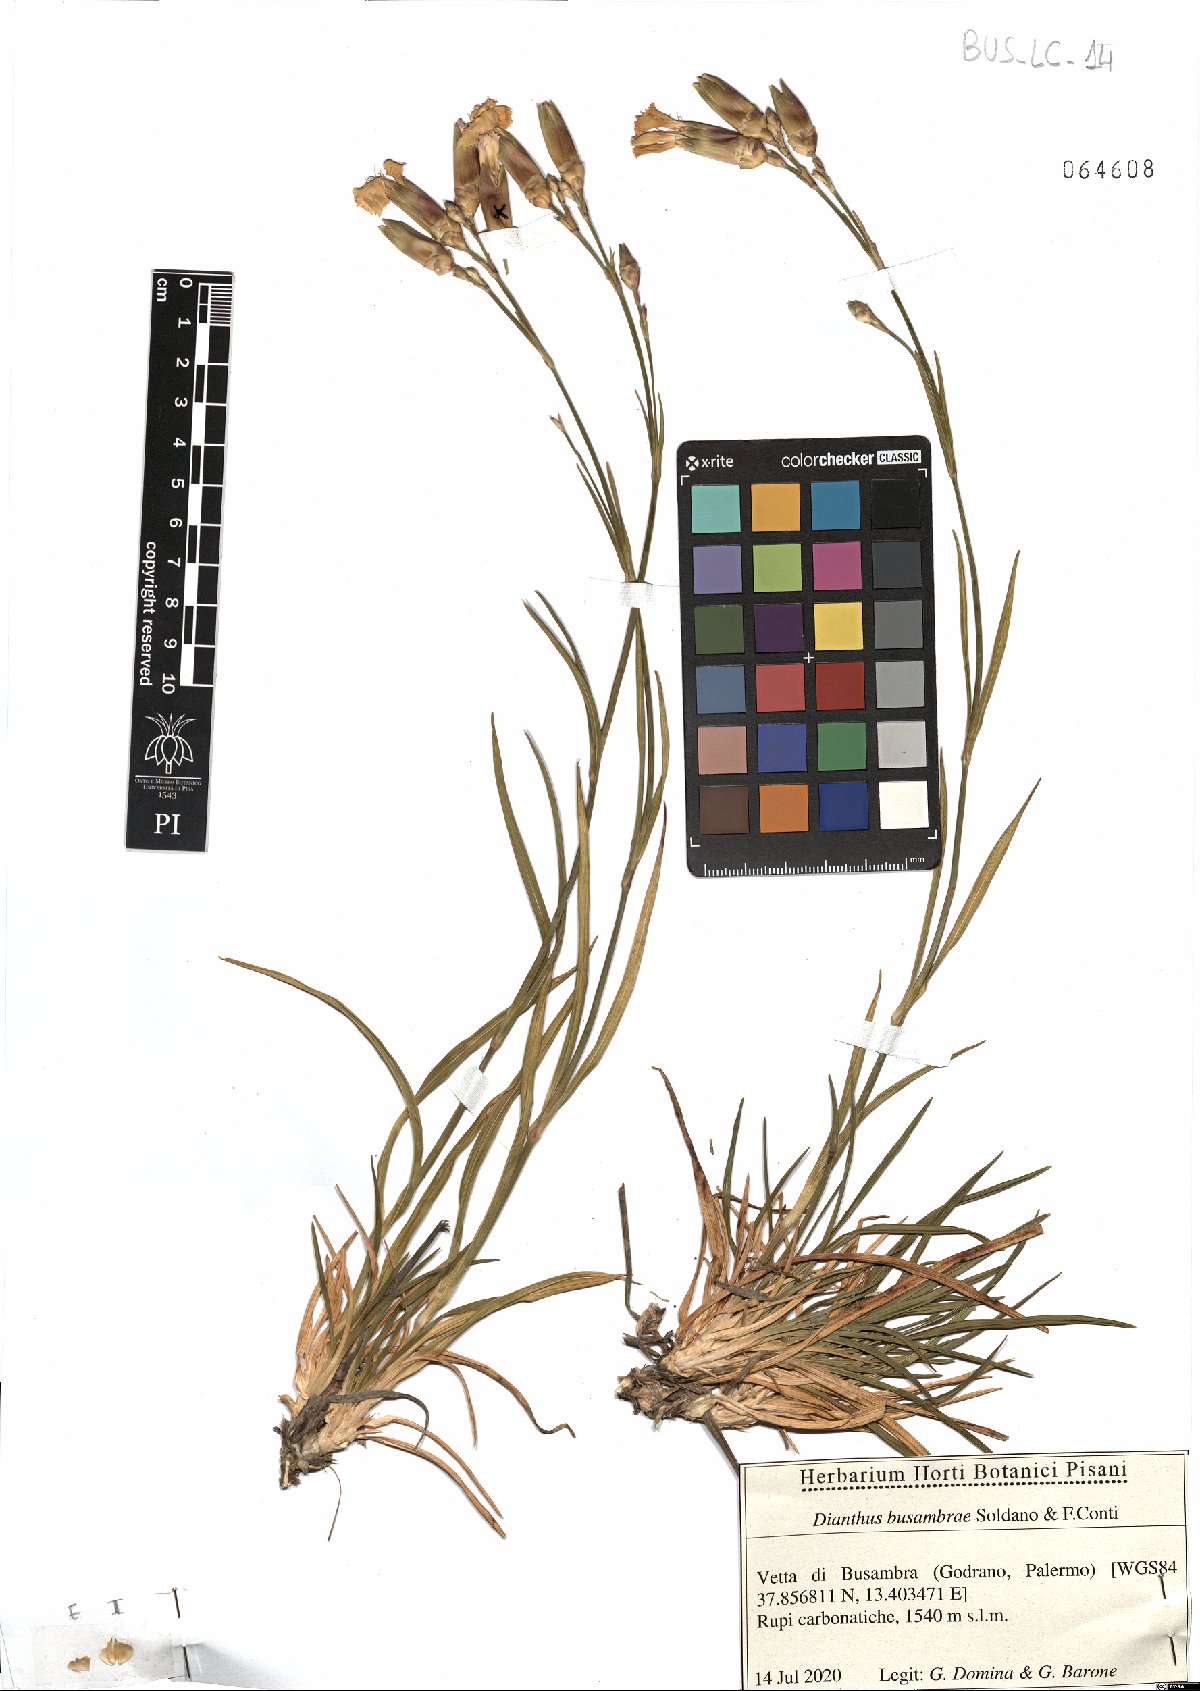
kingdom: Plantae
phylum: Tracheophyta
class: Magnoliopsida
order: Caryophyllales
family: Caryophyllaceae
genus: Dianthus
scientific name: Dianthus busambrae
